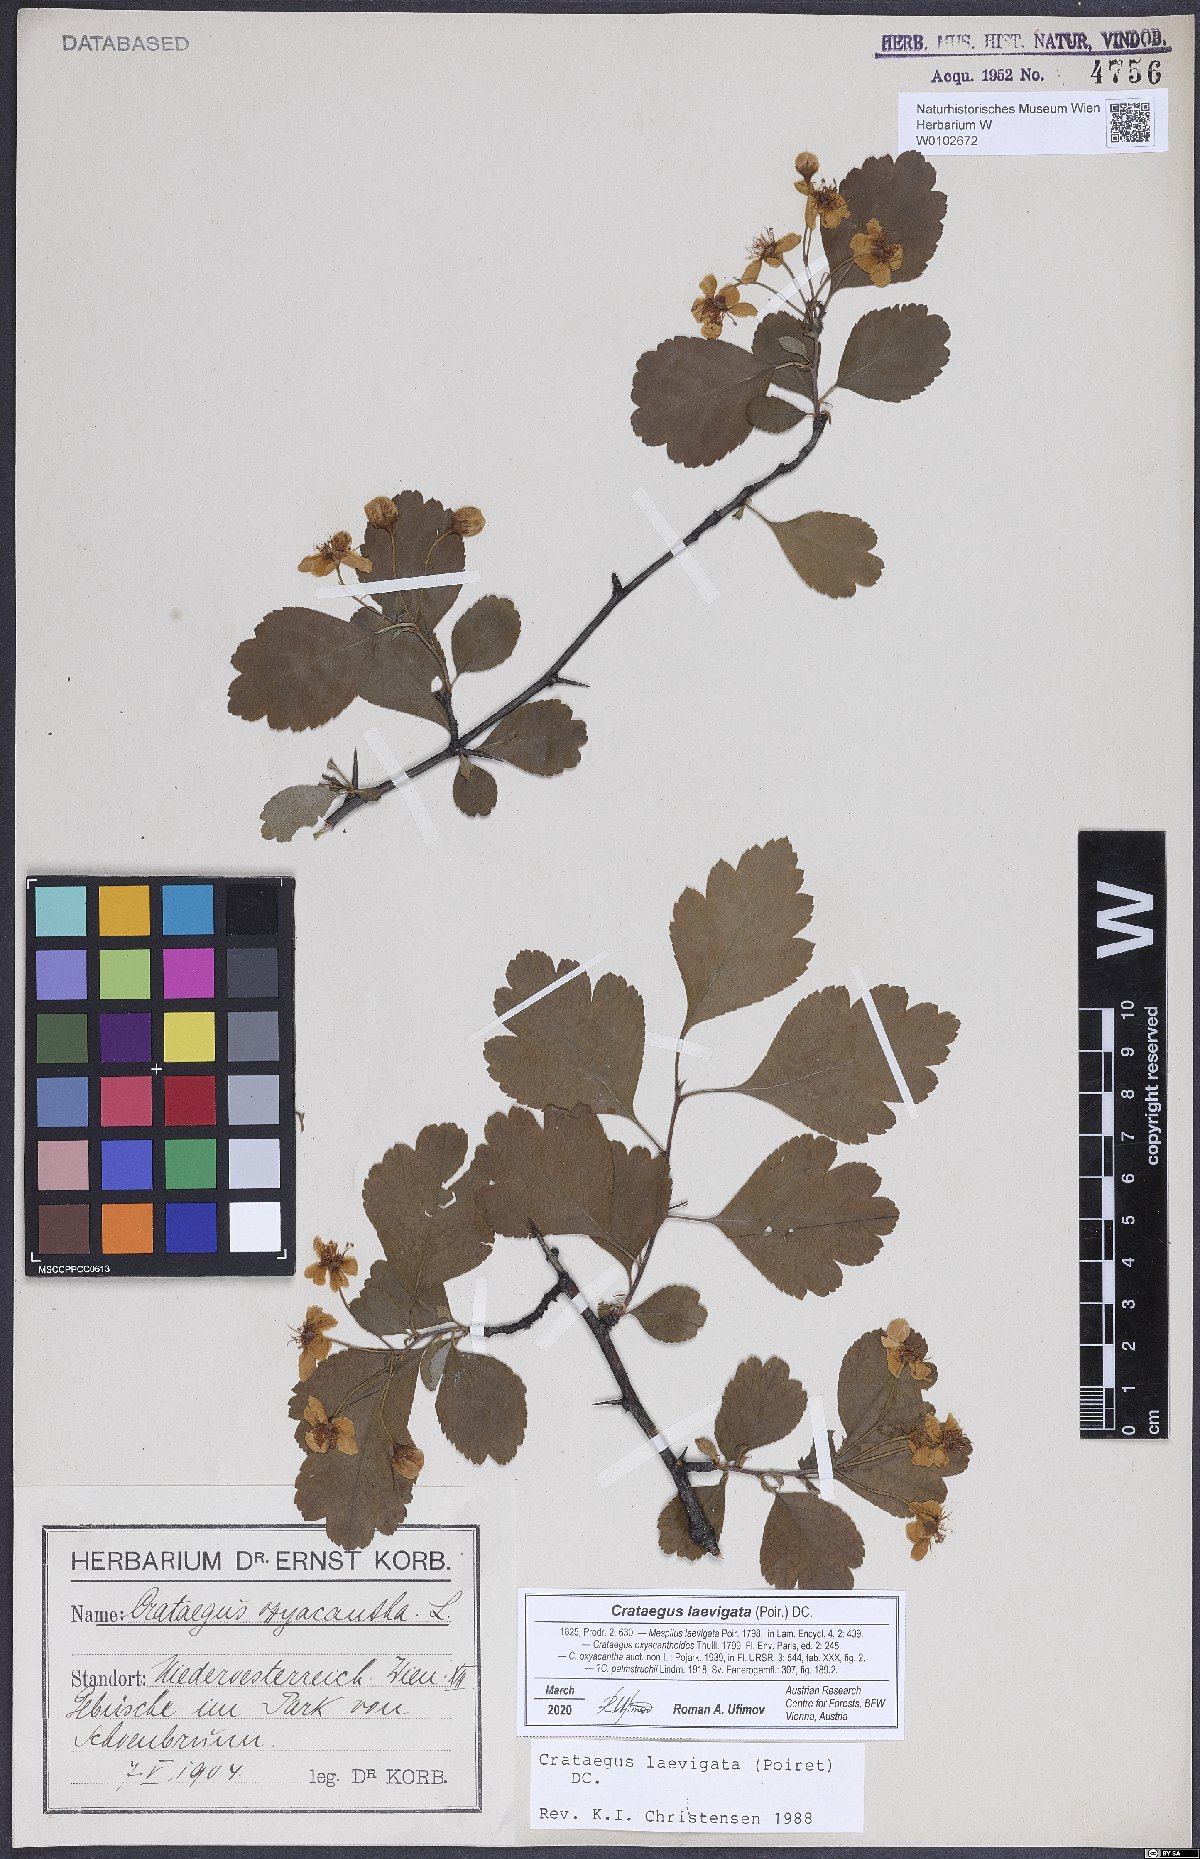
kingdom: Plantae
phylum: Tracheophyta
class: Magnoliopsida
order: Rosales
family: Rosaceae
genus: Crataegus
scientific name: Crataegus laevigata
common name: Midland hawthorn
